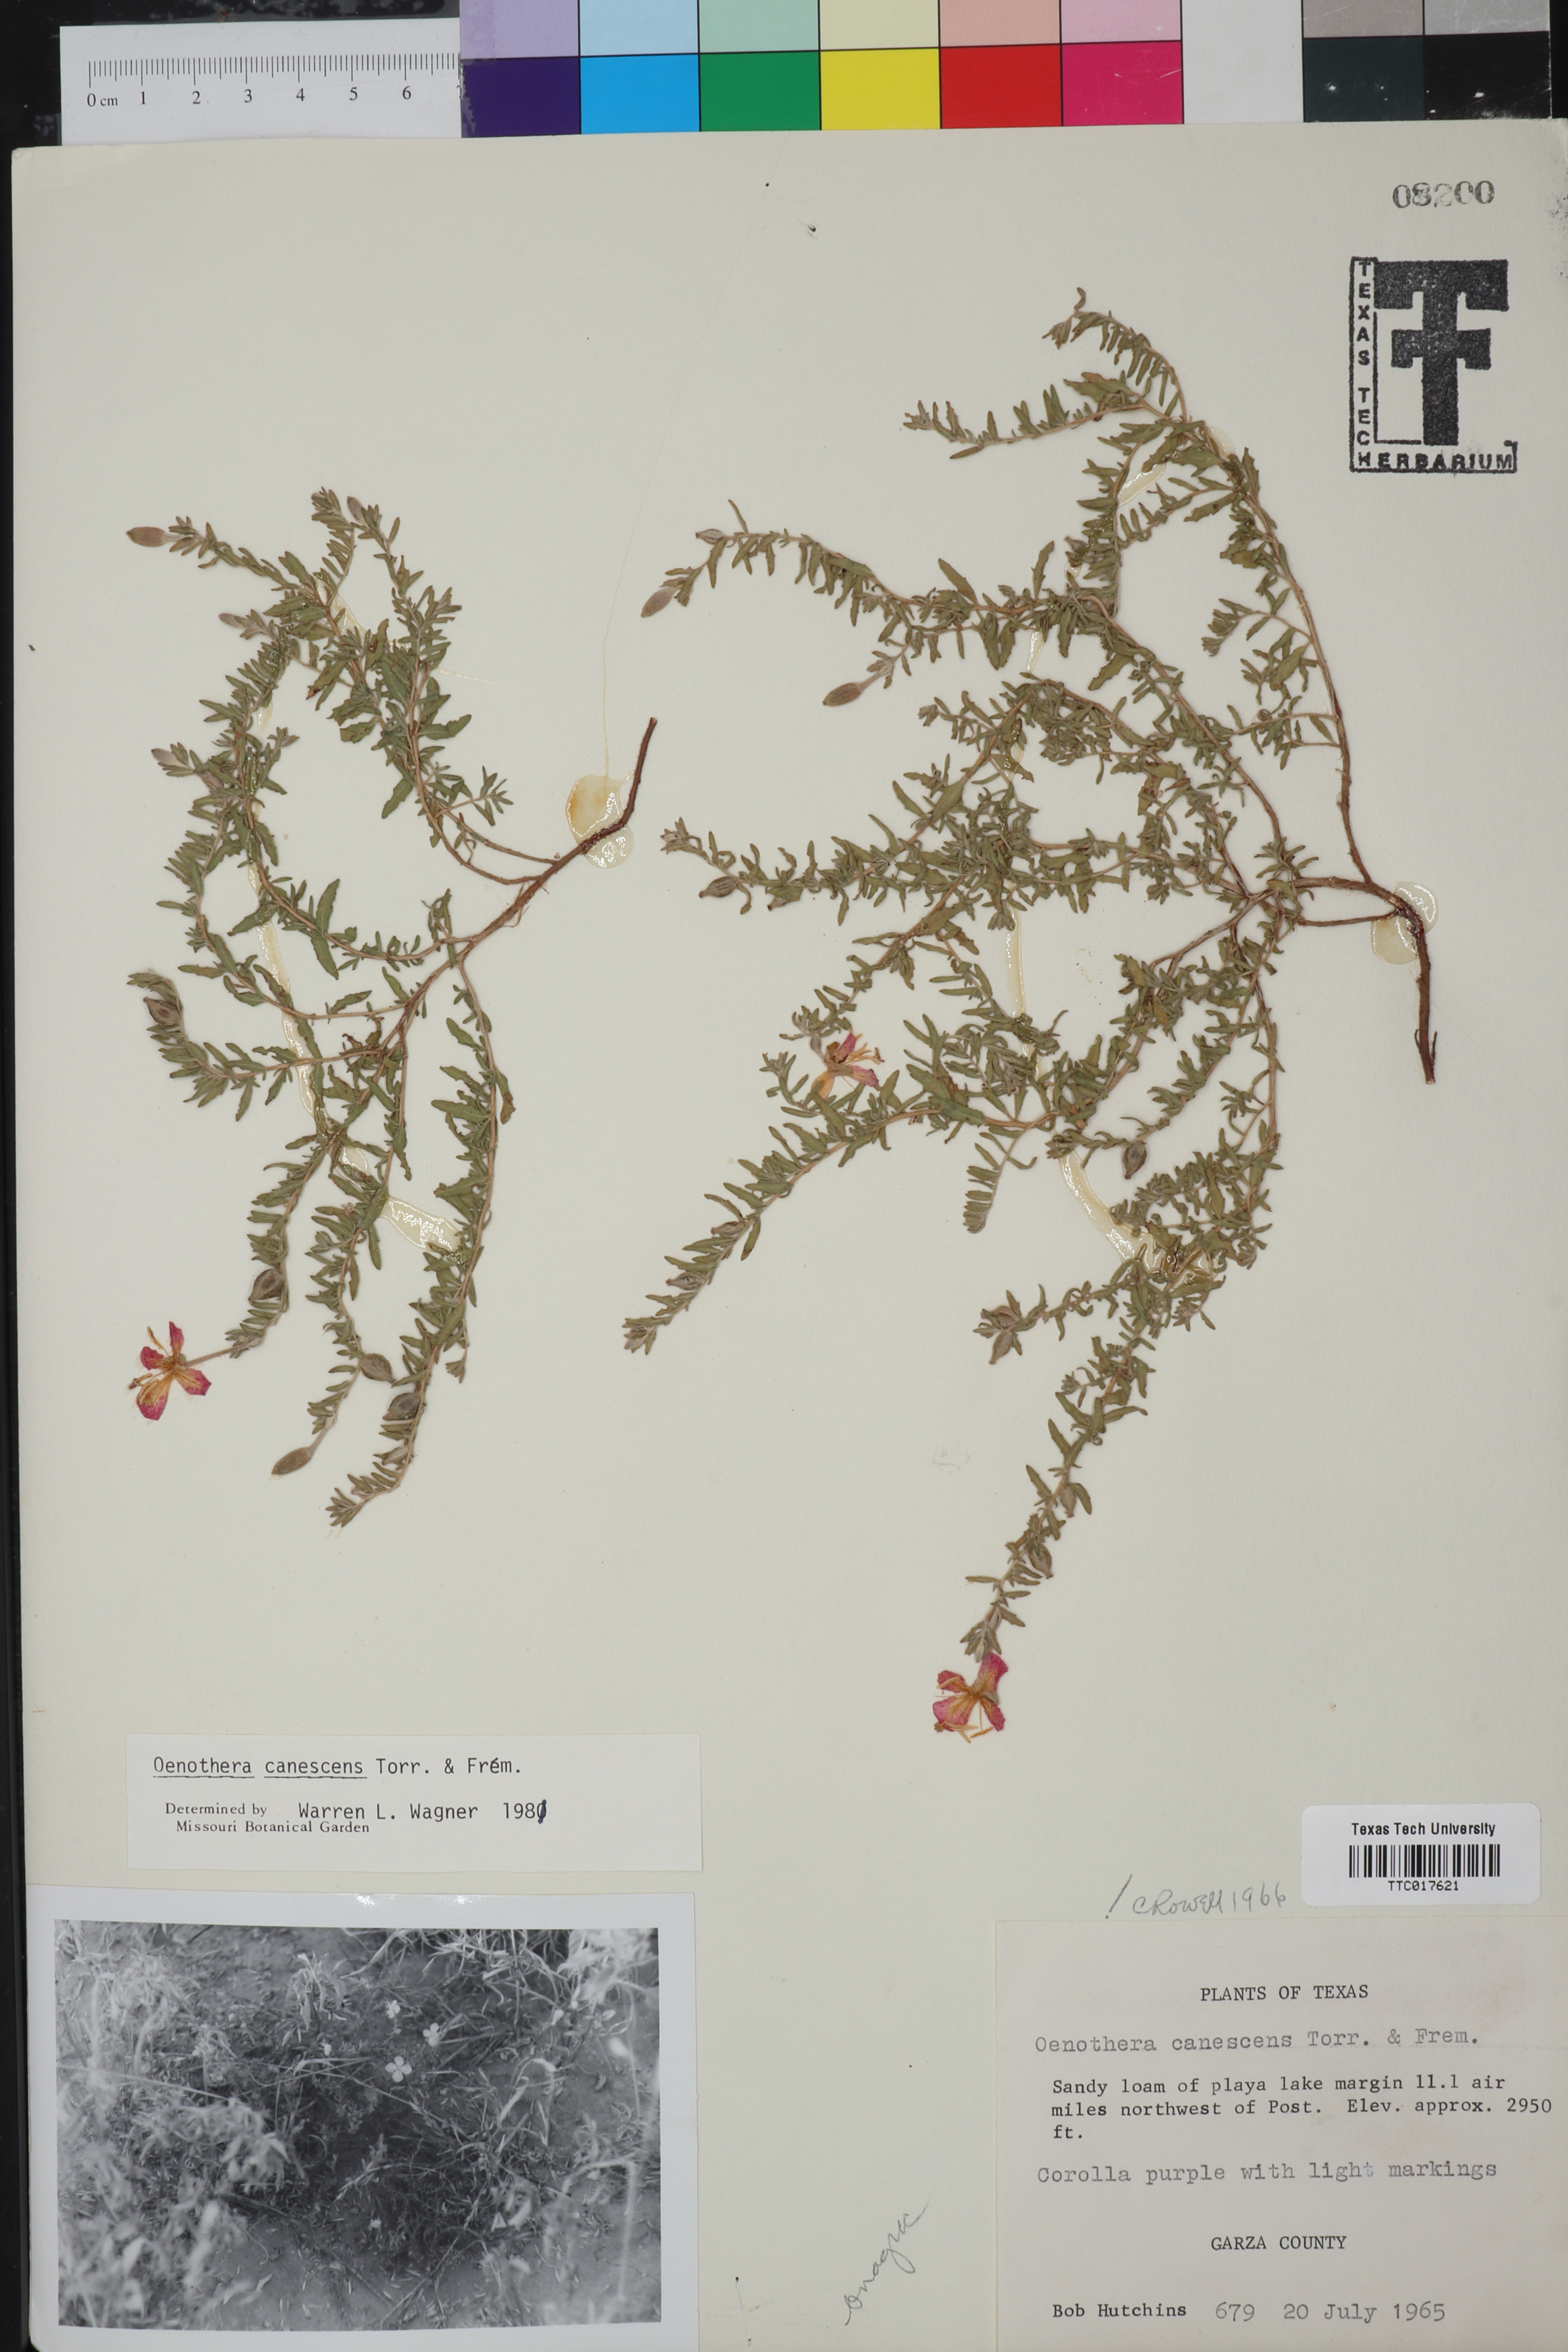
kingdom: Plantae
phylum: Tracheophyta
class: Magnoliopsida
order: Myrtales
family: Onagraceae
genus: Oenothera
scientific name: Oenothera canescens
